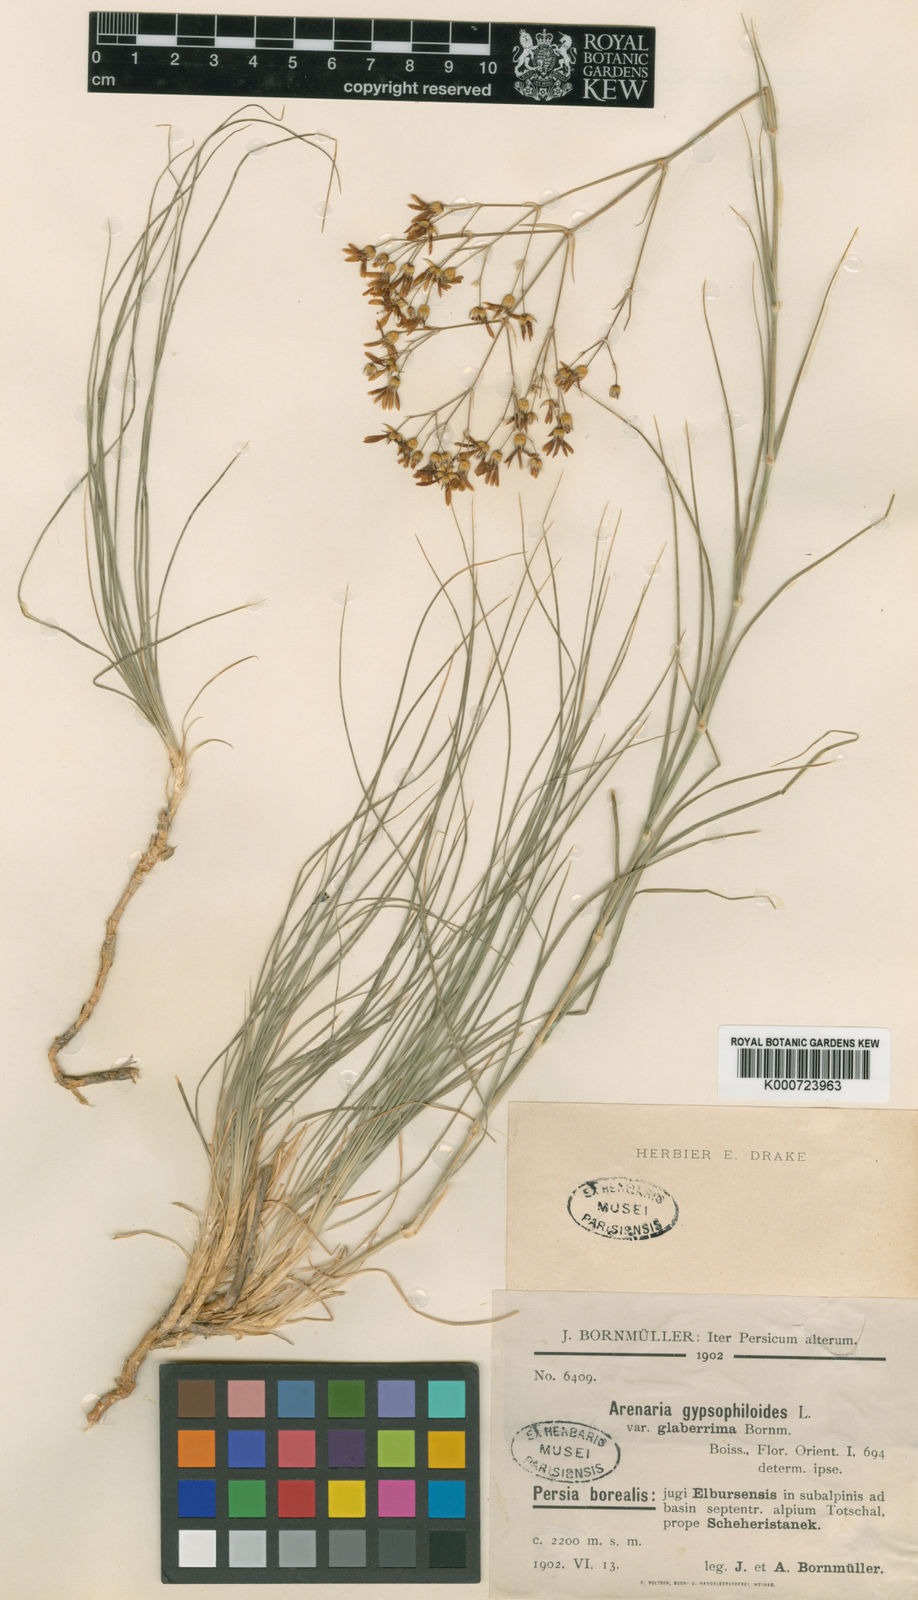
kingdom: Plantae
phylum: Tracheophyta
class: Magnoliopsida
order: Caryophyllales
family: Caryophyllaceae
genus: Eremogone
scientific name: Eremogone gypsophiloides
